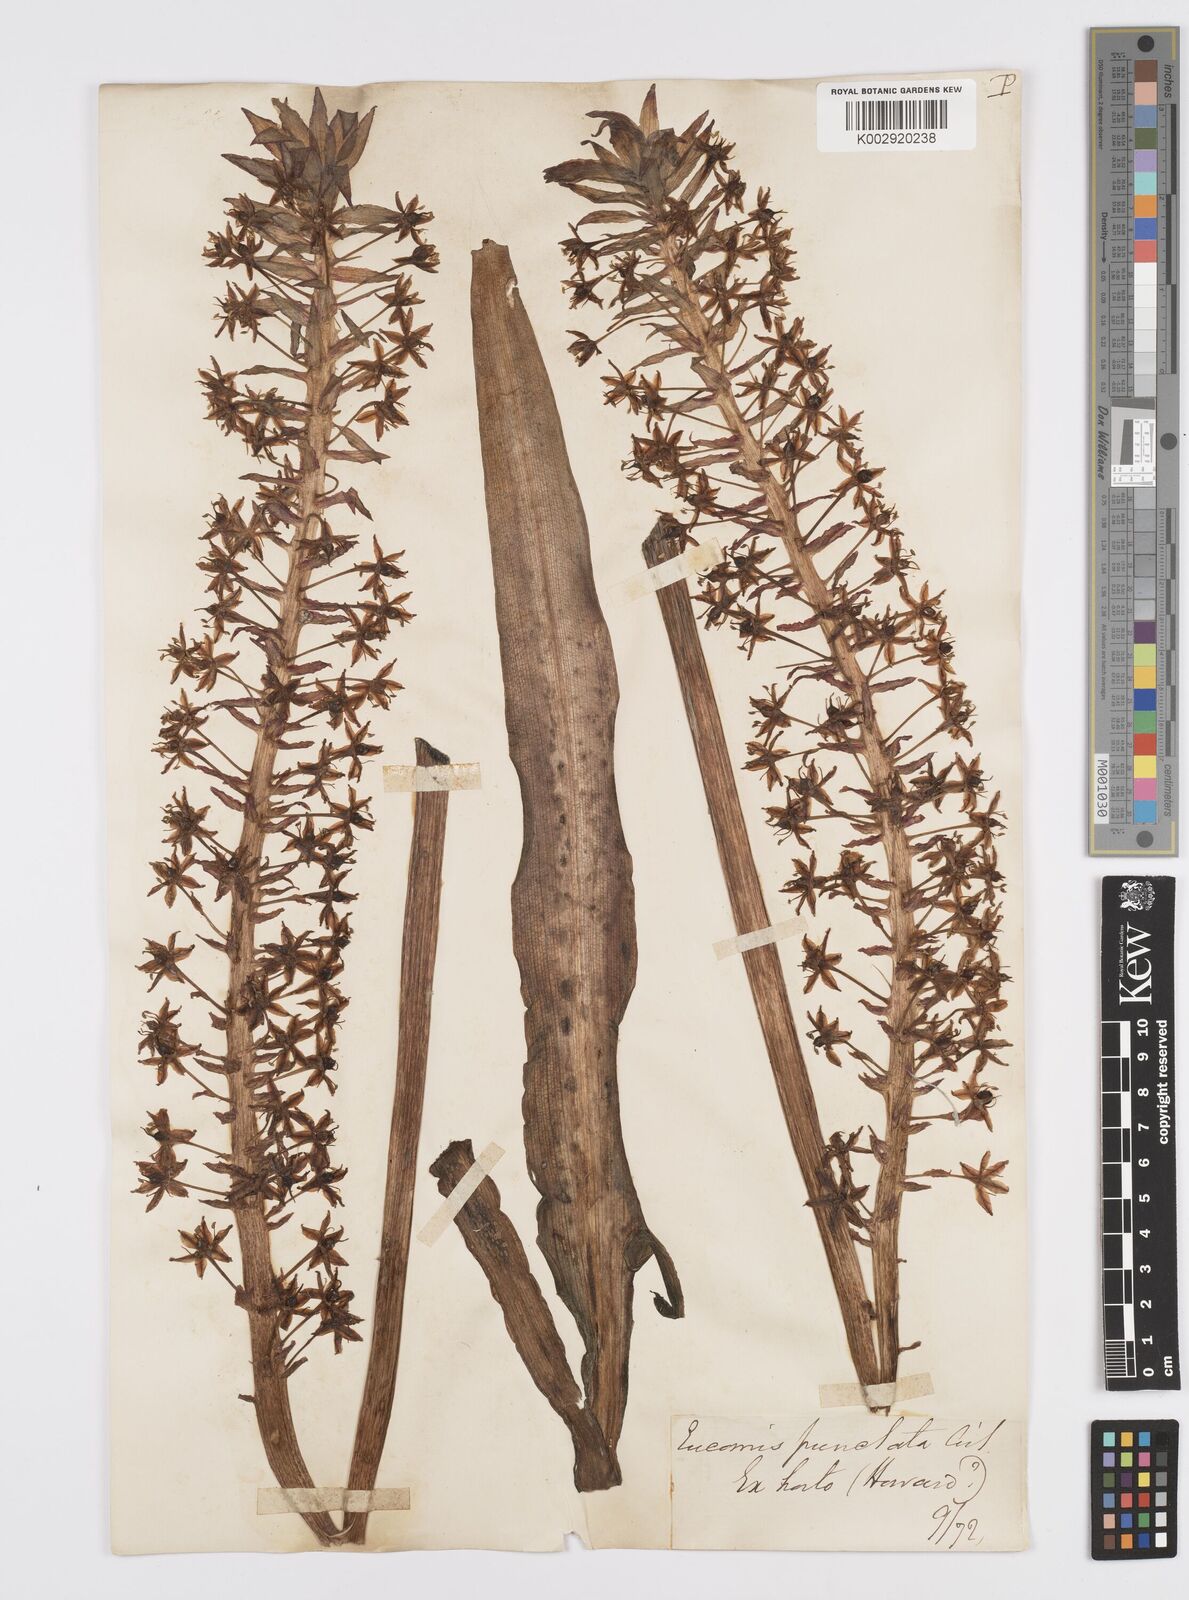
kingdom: Plantae
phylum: Tracheophyta
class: Liliopsida
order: Asparagales
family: Asparagaceae
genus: Eucomis
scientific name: Eucomis comosa
